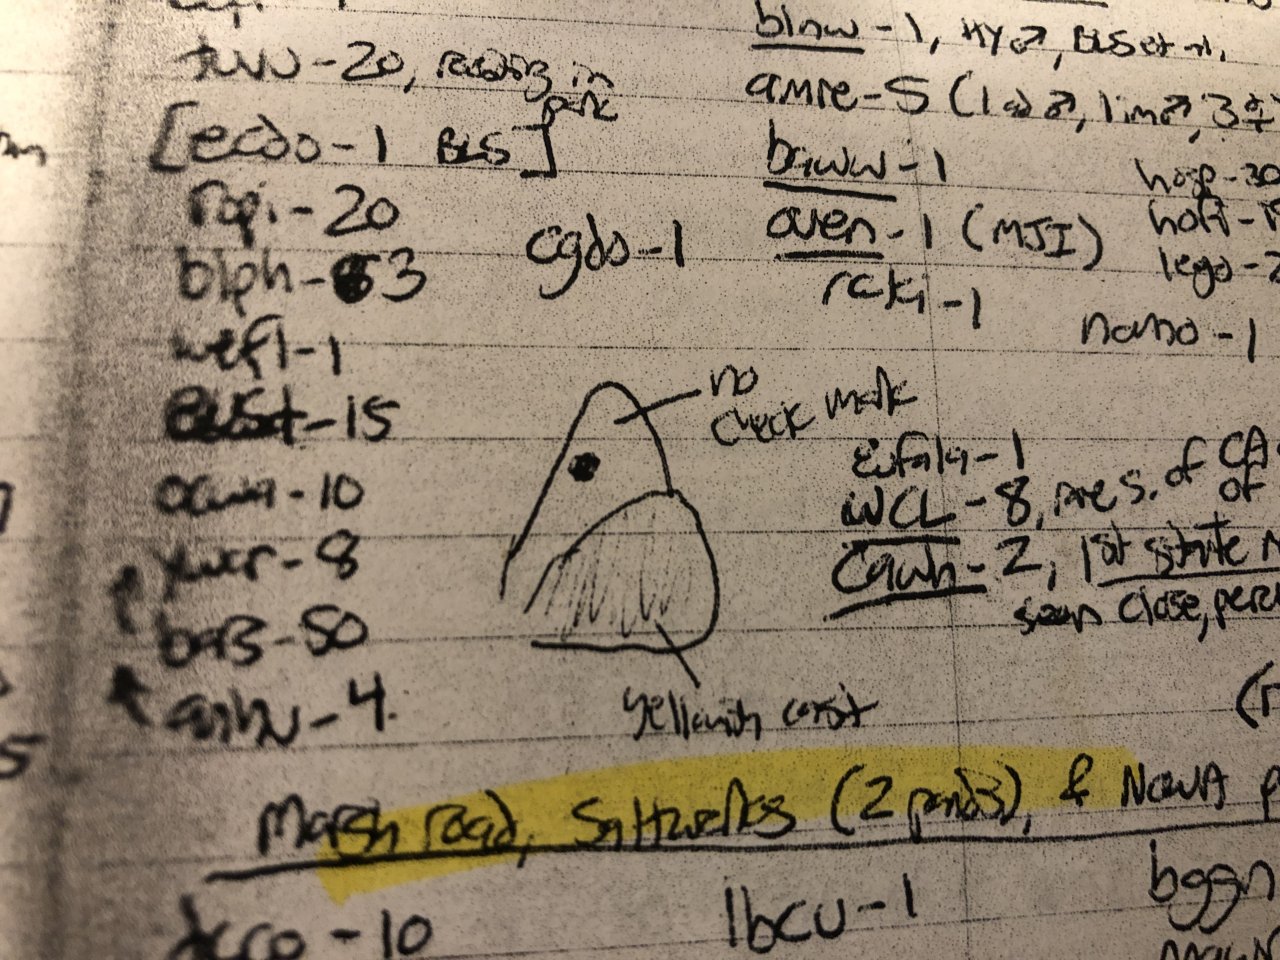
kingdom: Animalia
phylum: Arthropoda
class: Insecta
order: Lepidoptera
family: Pieridae
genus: Pieris
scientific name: Pieris rapae
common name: Cabbage White
